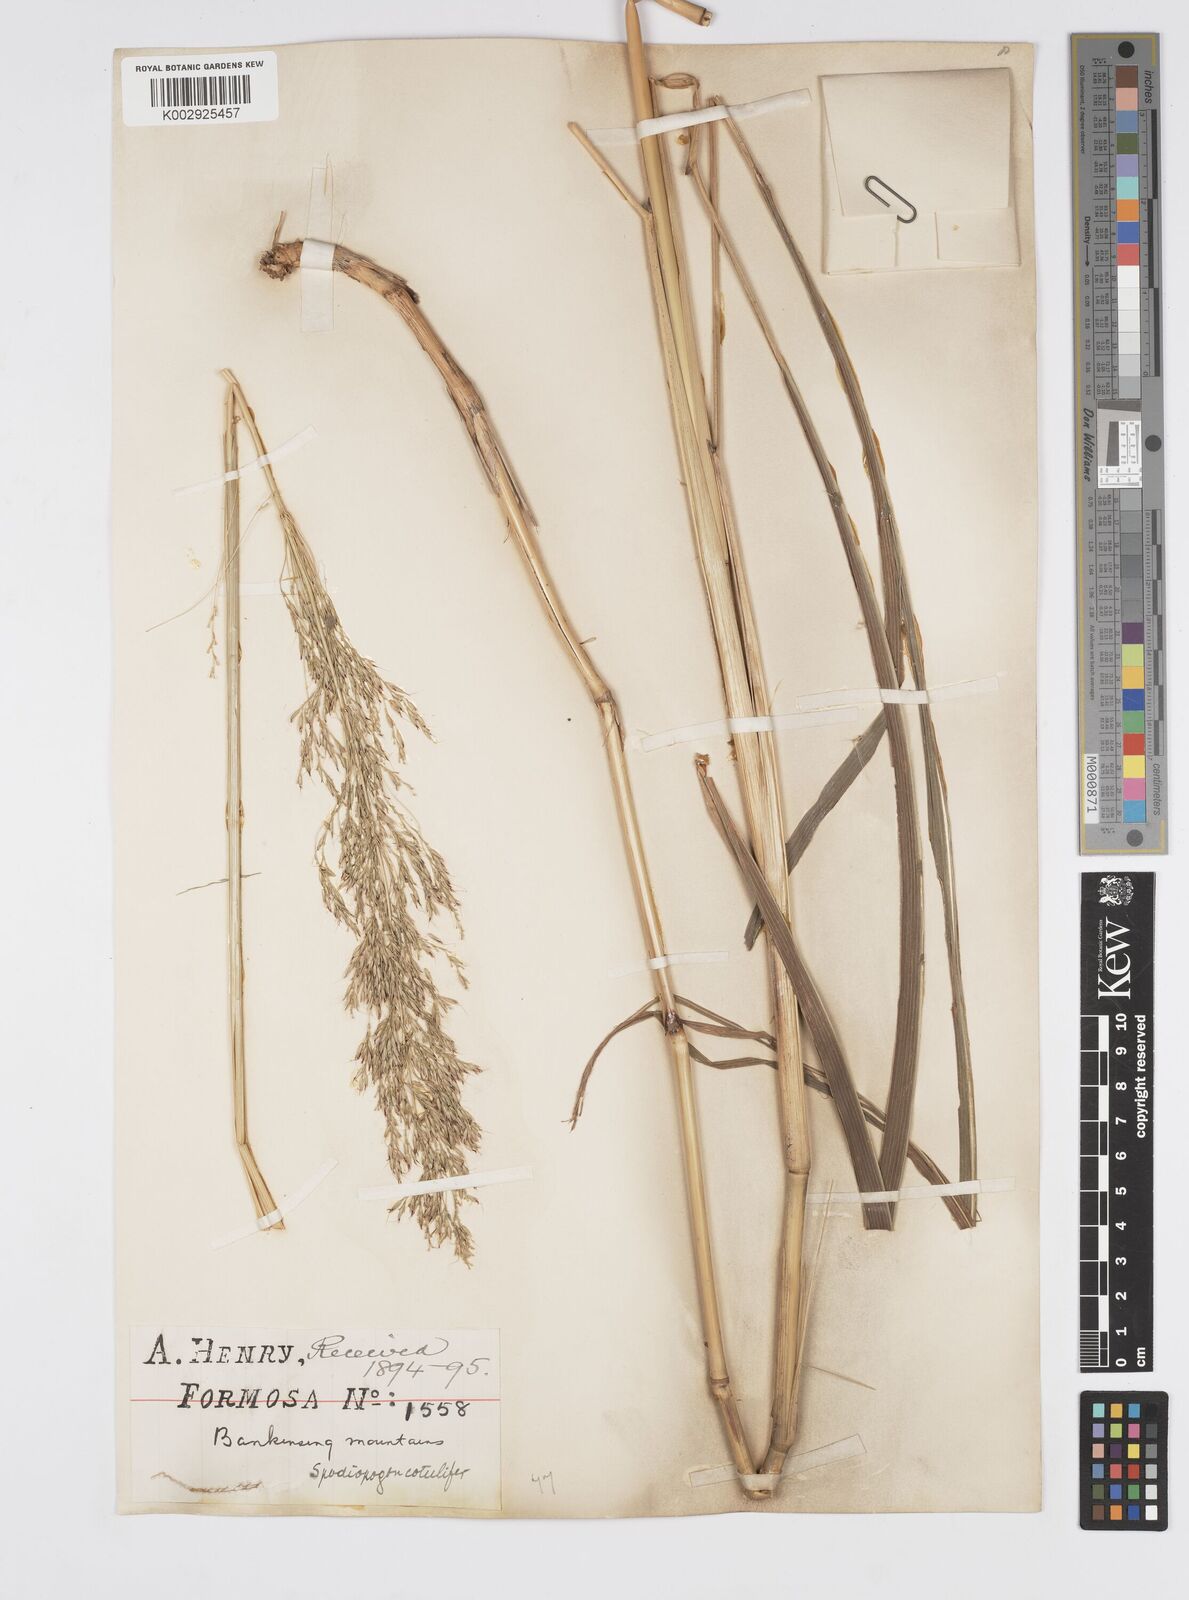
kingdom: Plantae
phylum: Tracheophyta
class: Liliopsida
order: Poales
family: Poaceae
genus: Spodiopogon
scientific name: Spodiopogon cotulifer
